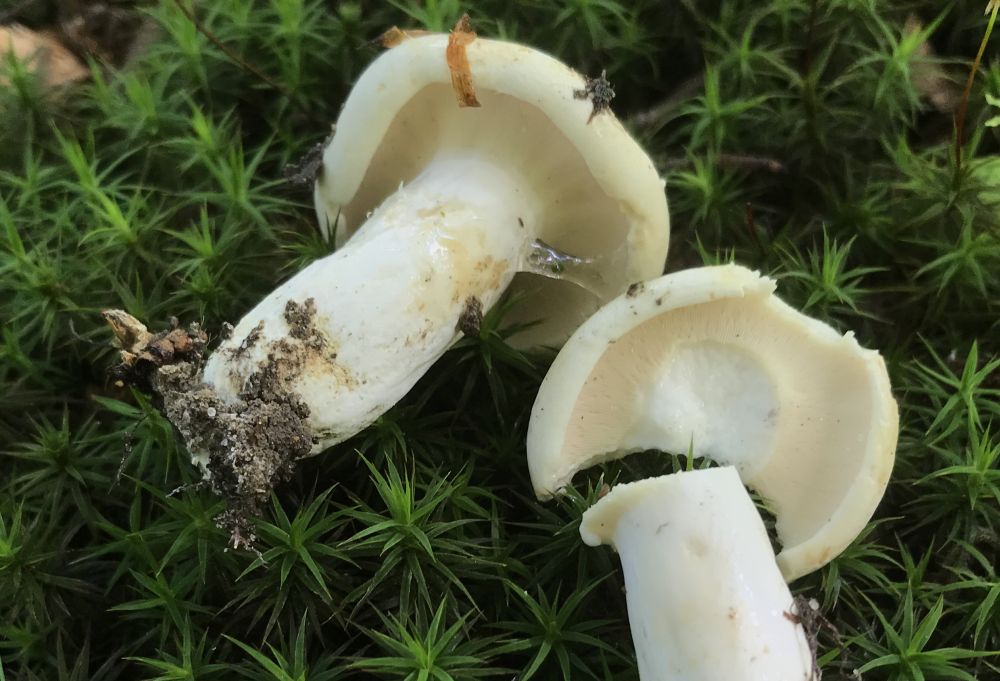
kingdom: Fungi
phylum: Basidiomycota
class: Agaricomycetes
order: Russulales
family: Russulaceae
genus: Lactifluus
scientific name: Lactifluus bertillonii
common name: blødfiltet mælkehat
